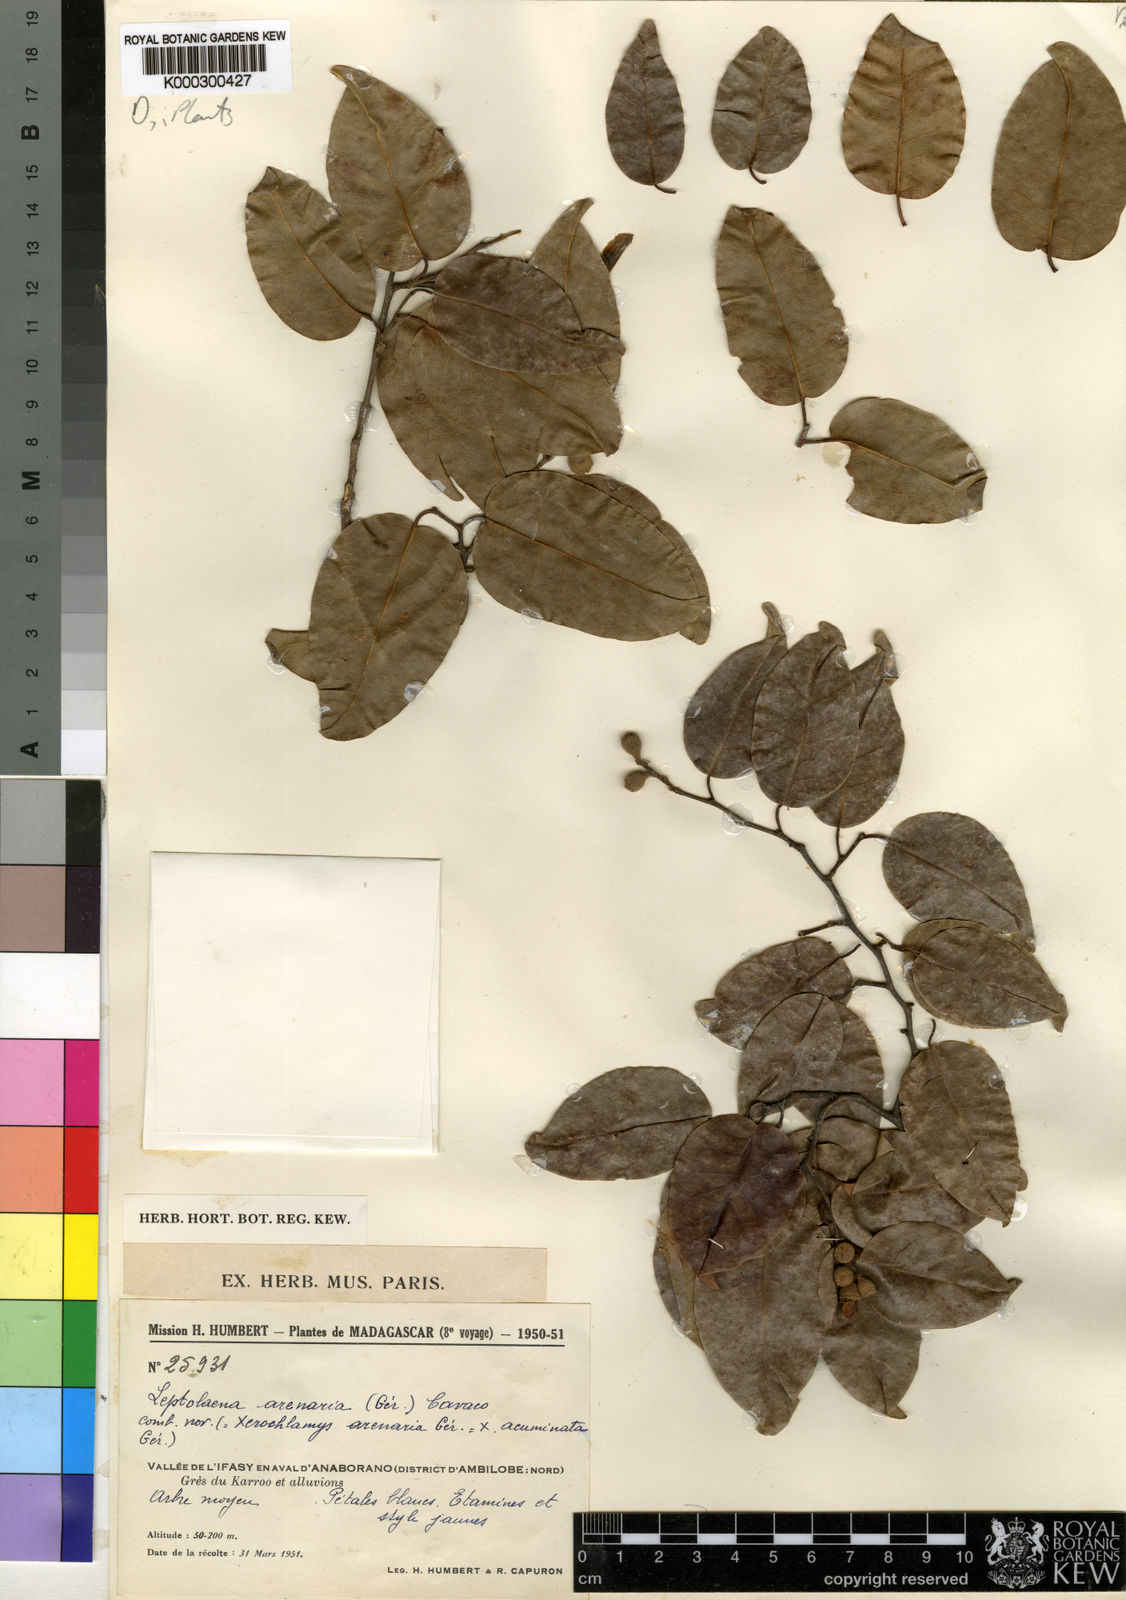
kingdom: Plantae
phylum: Tracheophyta
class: Magnoliopsida
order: Malvales
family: Sarcolaenaceae
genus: Leptolaena
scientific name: Leptolaena arenaria
